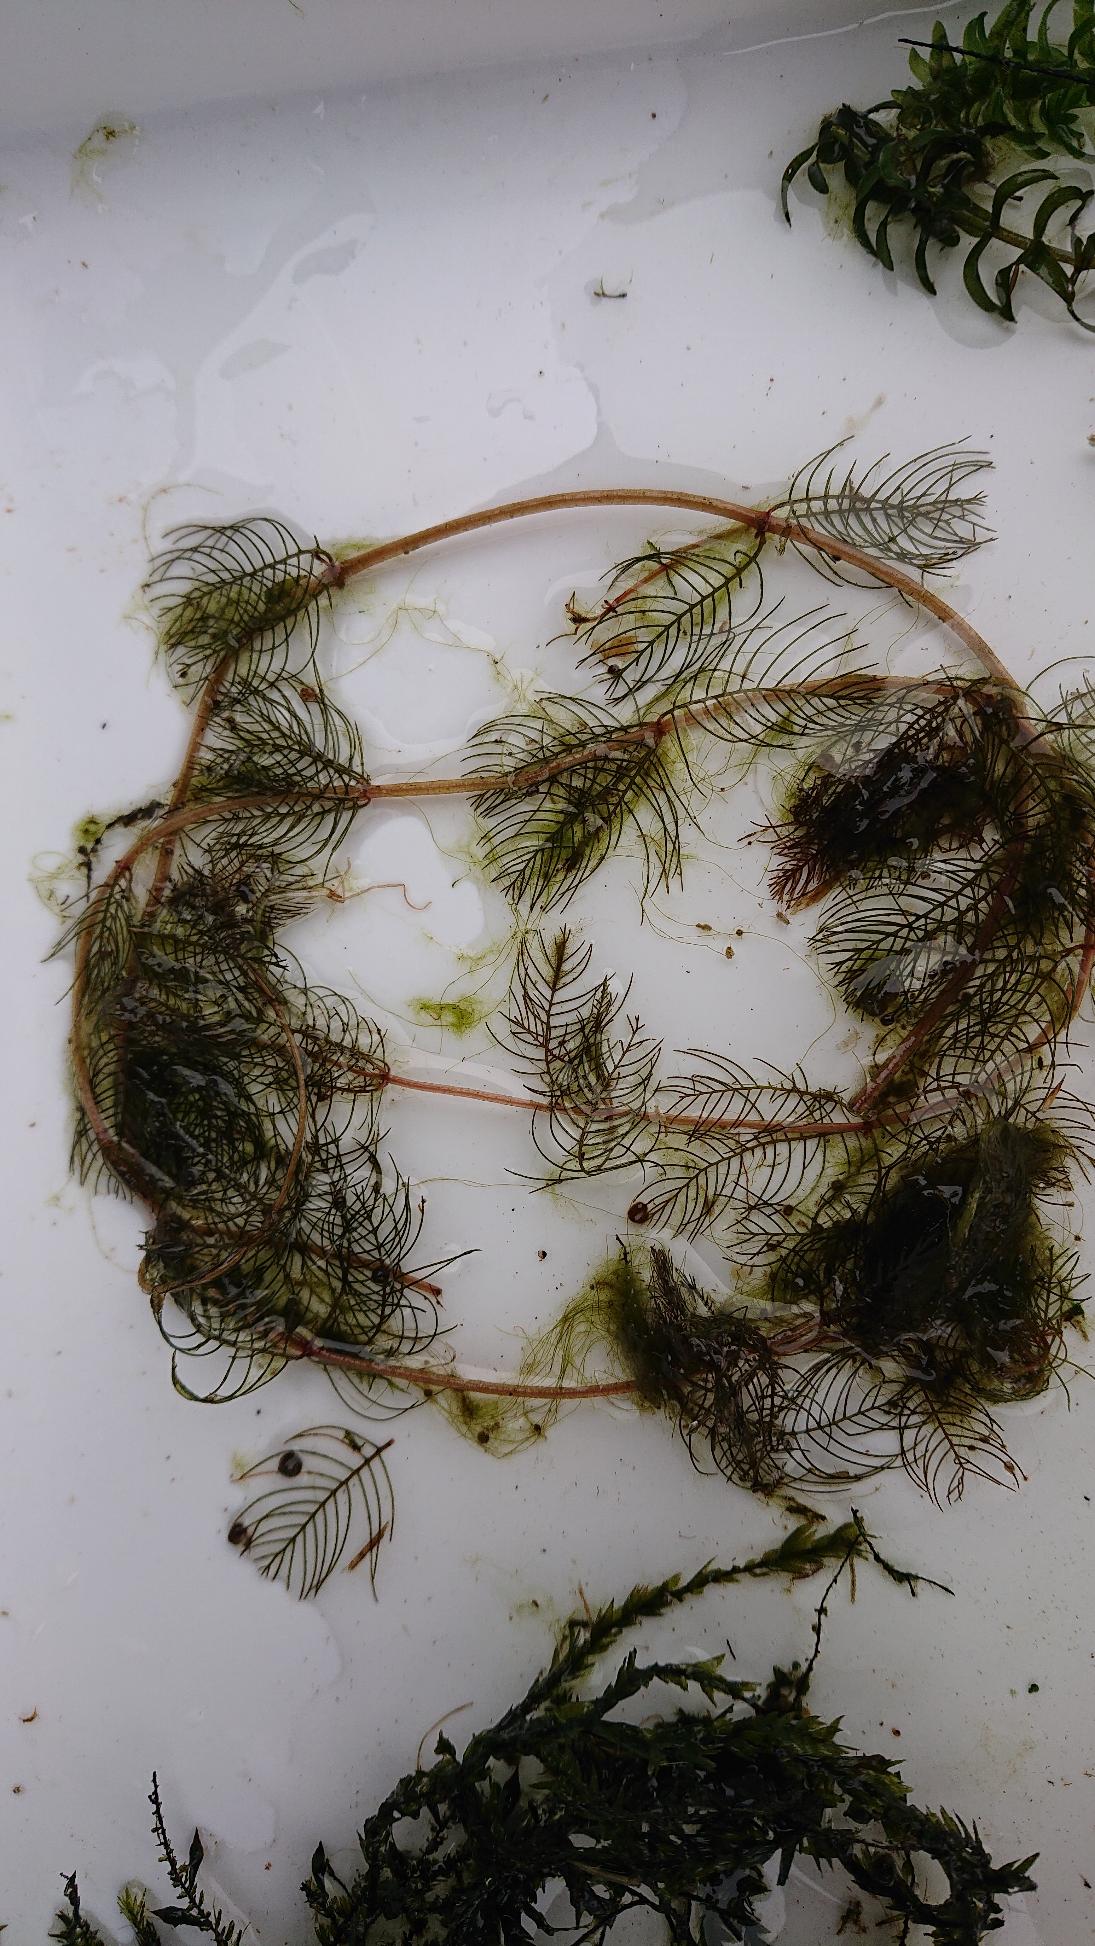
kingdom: Plantae
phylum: Tracheophyta
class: Magnoliopsida
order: Saxifragales
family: Haloragaceae
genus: Myriophyllum
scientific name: Myriophyllum spicatum
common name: Aks-tusindblad
